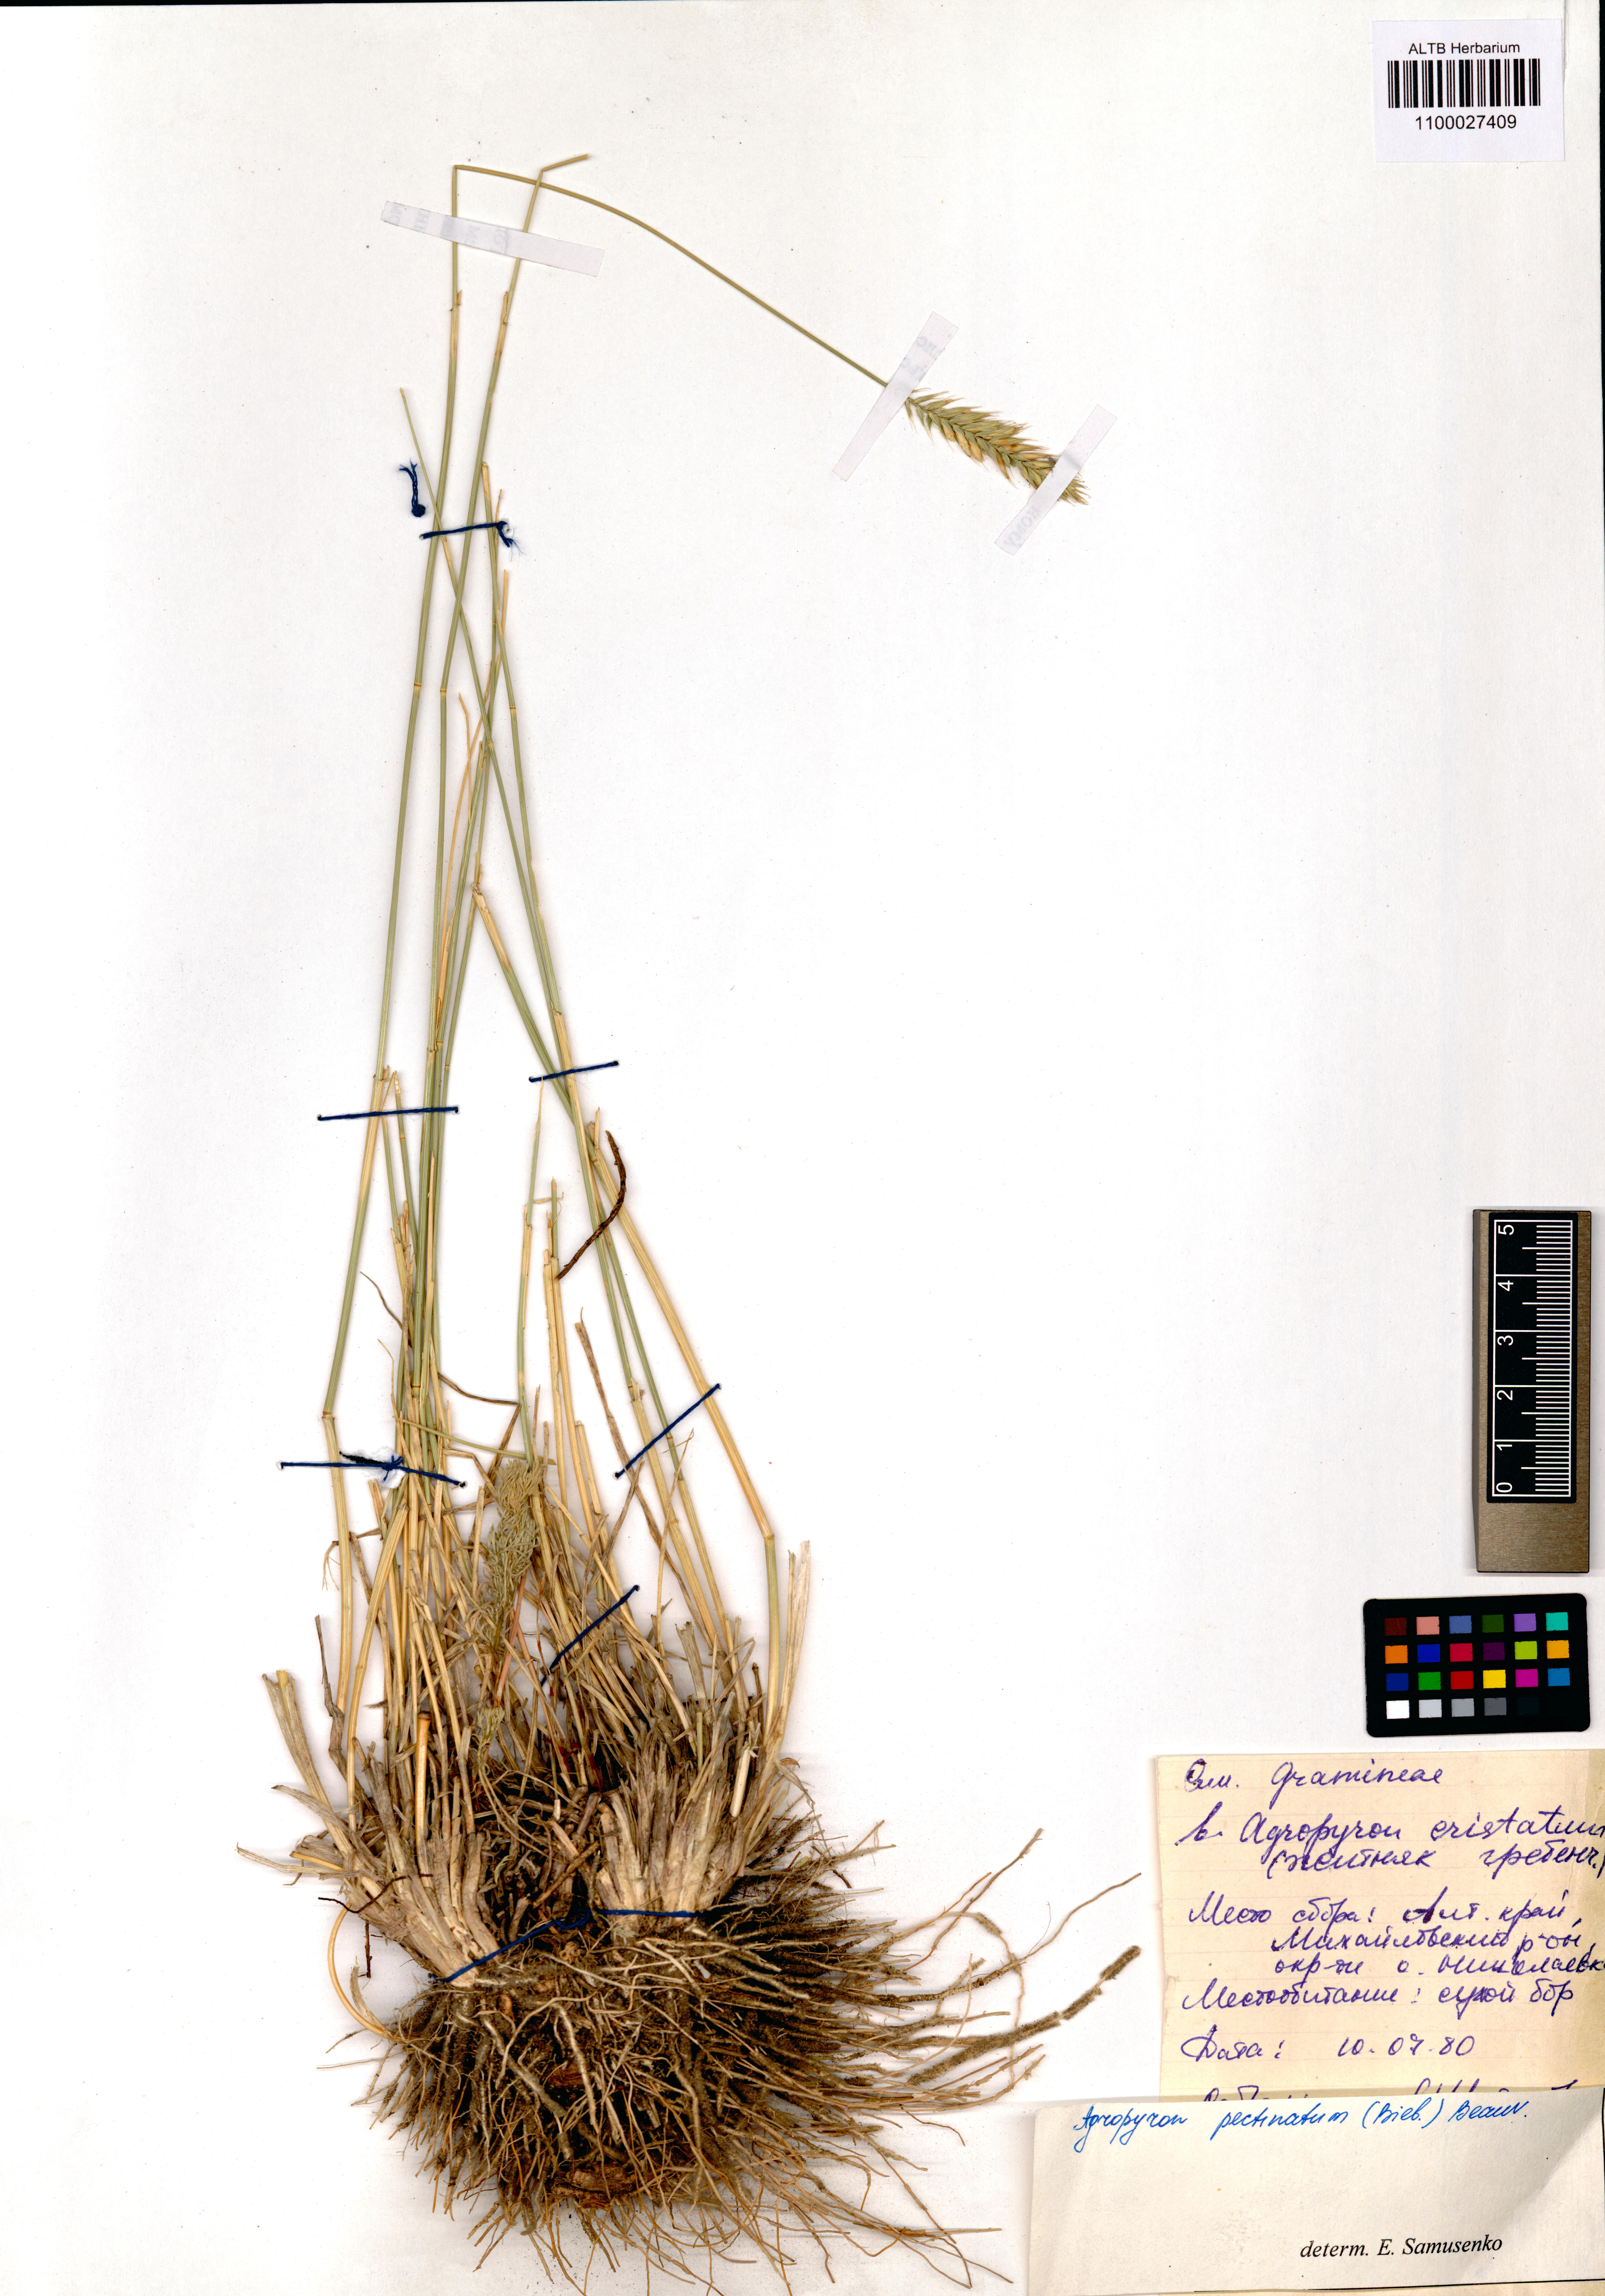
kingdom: Plantae
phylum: Tracheophyta
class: Liliopsida
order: Poales
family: Poaceae
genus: Agropyron
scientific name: Agropyron cristatum
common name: Crested wheatgrass
